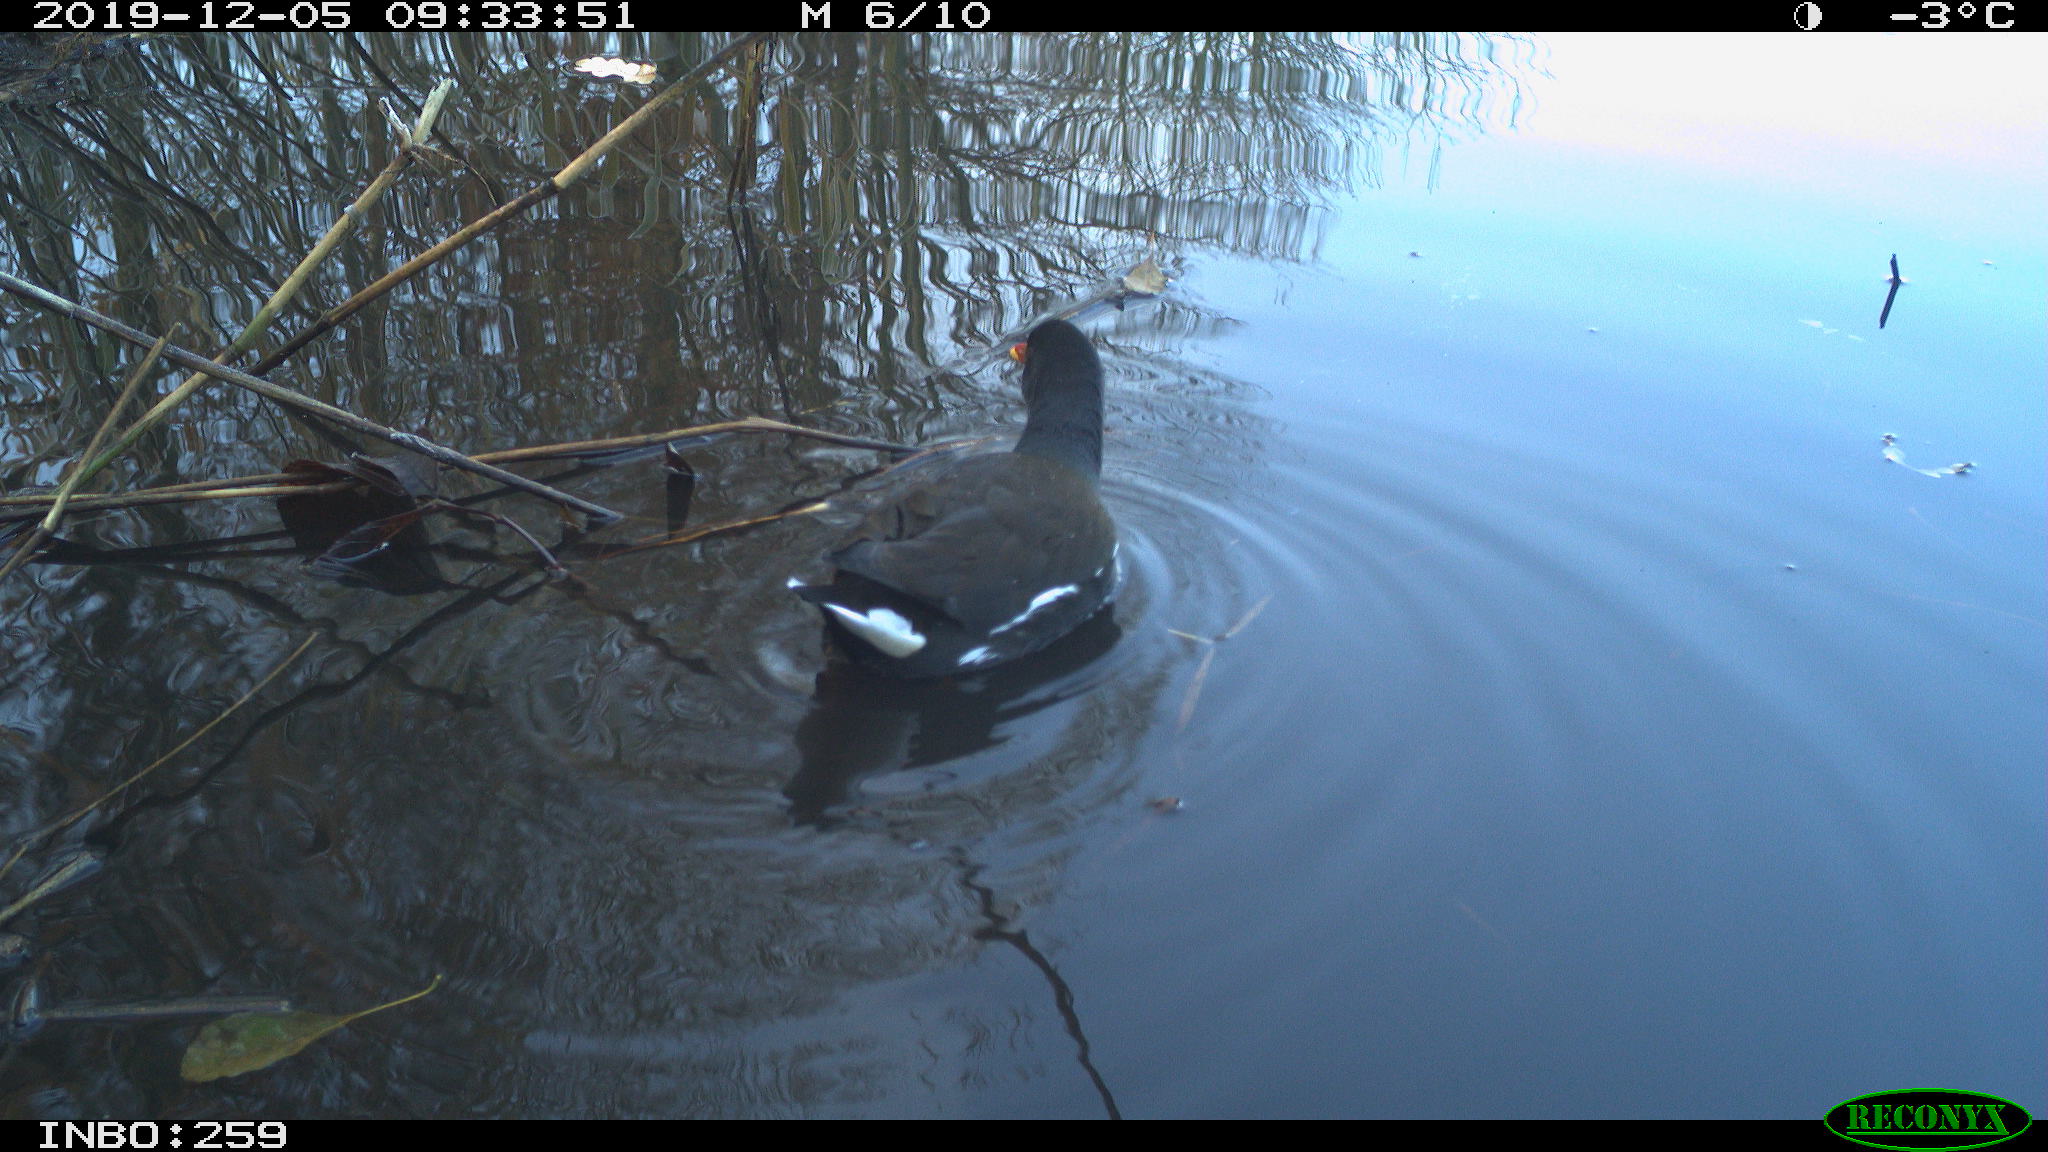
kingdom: Animalia
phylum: Chordata
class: Aves
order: Gruiformes
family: Rallidae
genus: Gallinula
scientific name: Gallinula chloropus
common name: Common moorhen
